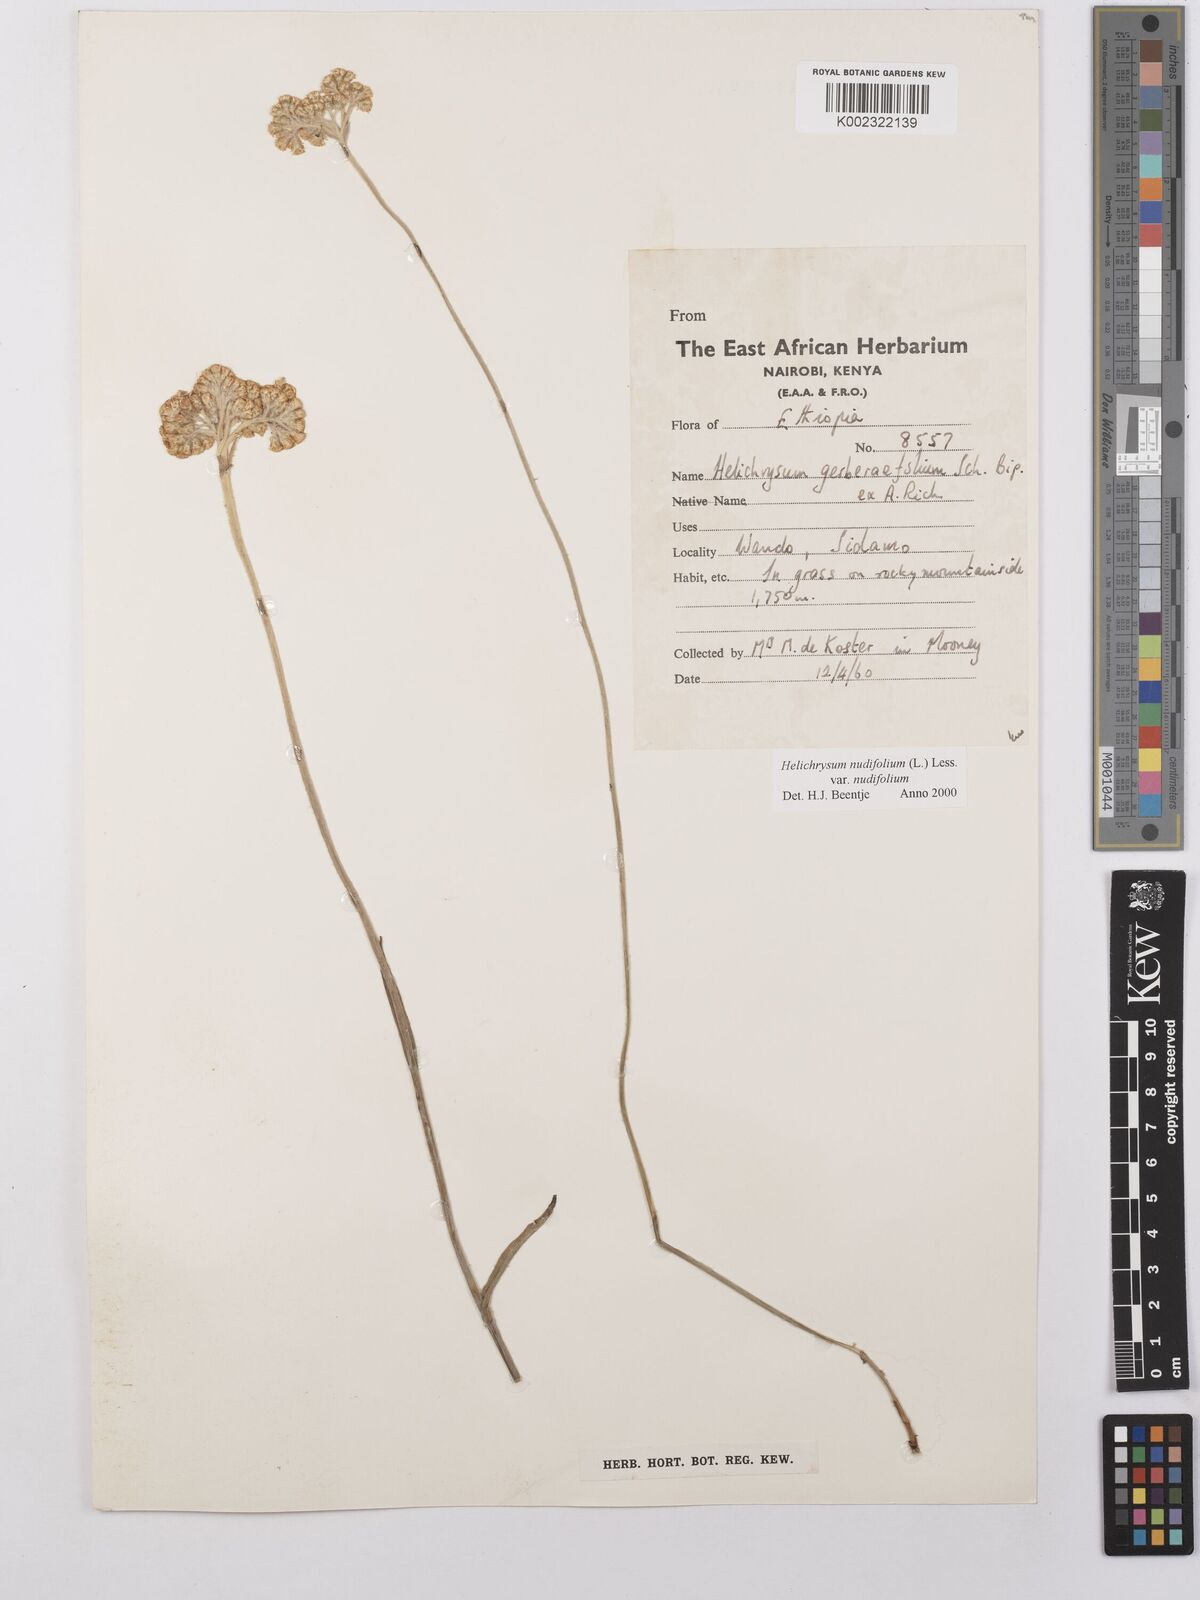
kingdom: Plantae
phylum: Tracheophyta
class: Magnoliopsida
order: Asterales
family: Asteraceae
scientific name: Asteraceae
